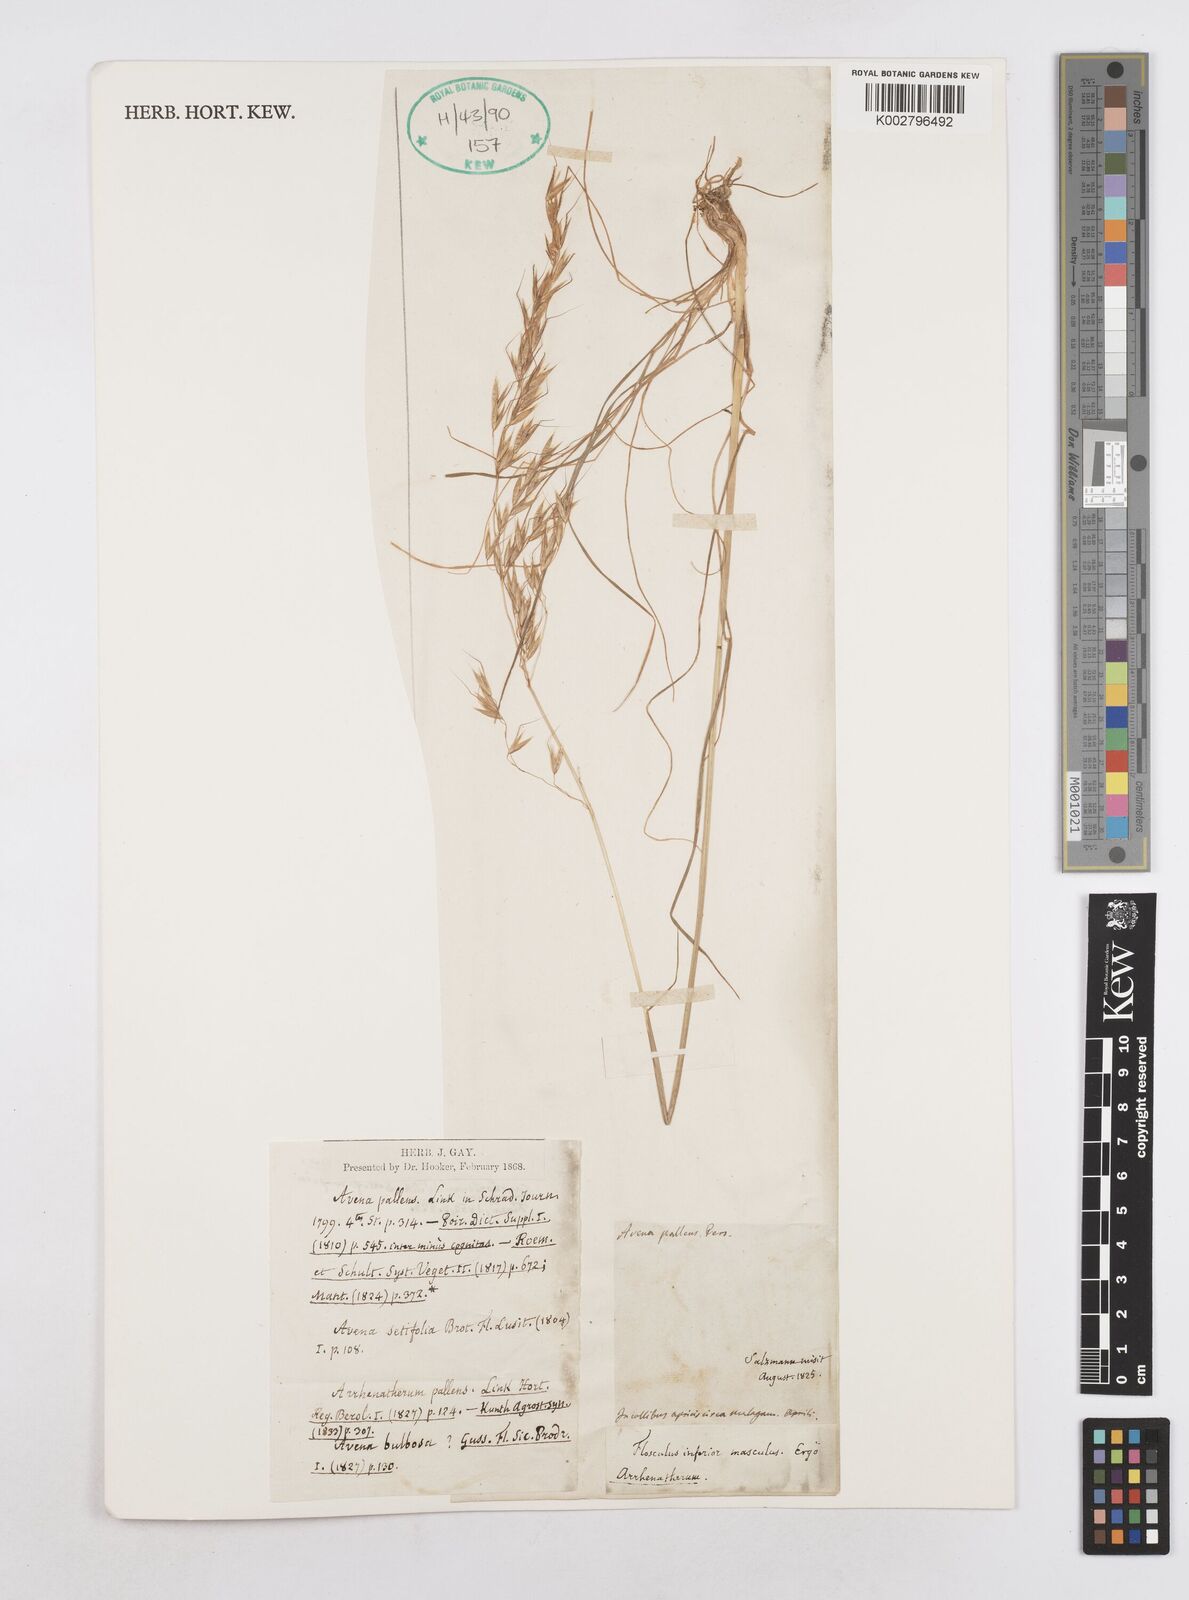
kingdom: Plantae
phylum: Tracheophyta
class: Liliopsida
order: Poales
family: Poaceae
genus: Arrhenatherum
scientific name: Arrhenatherum elatius
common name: Tall oatgrass
